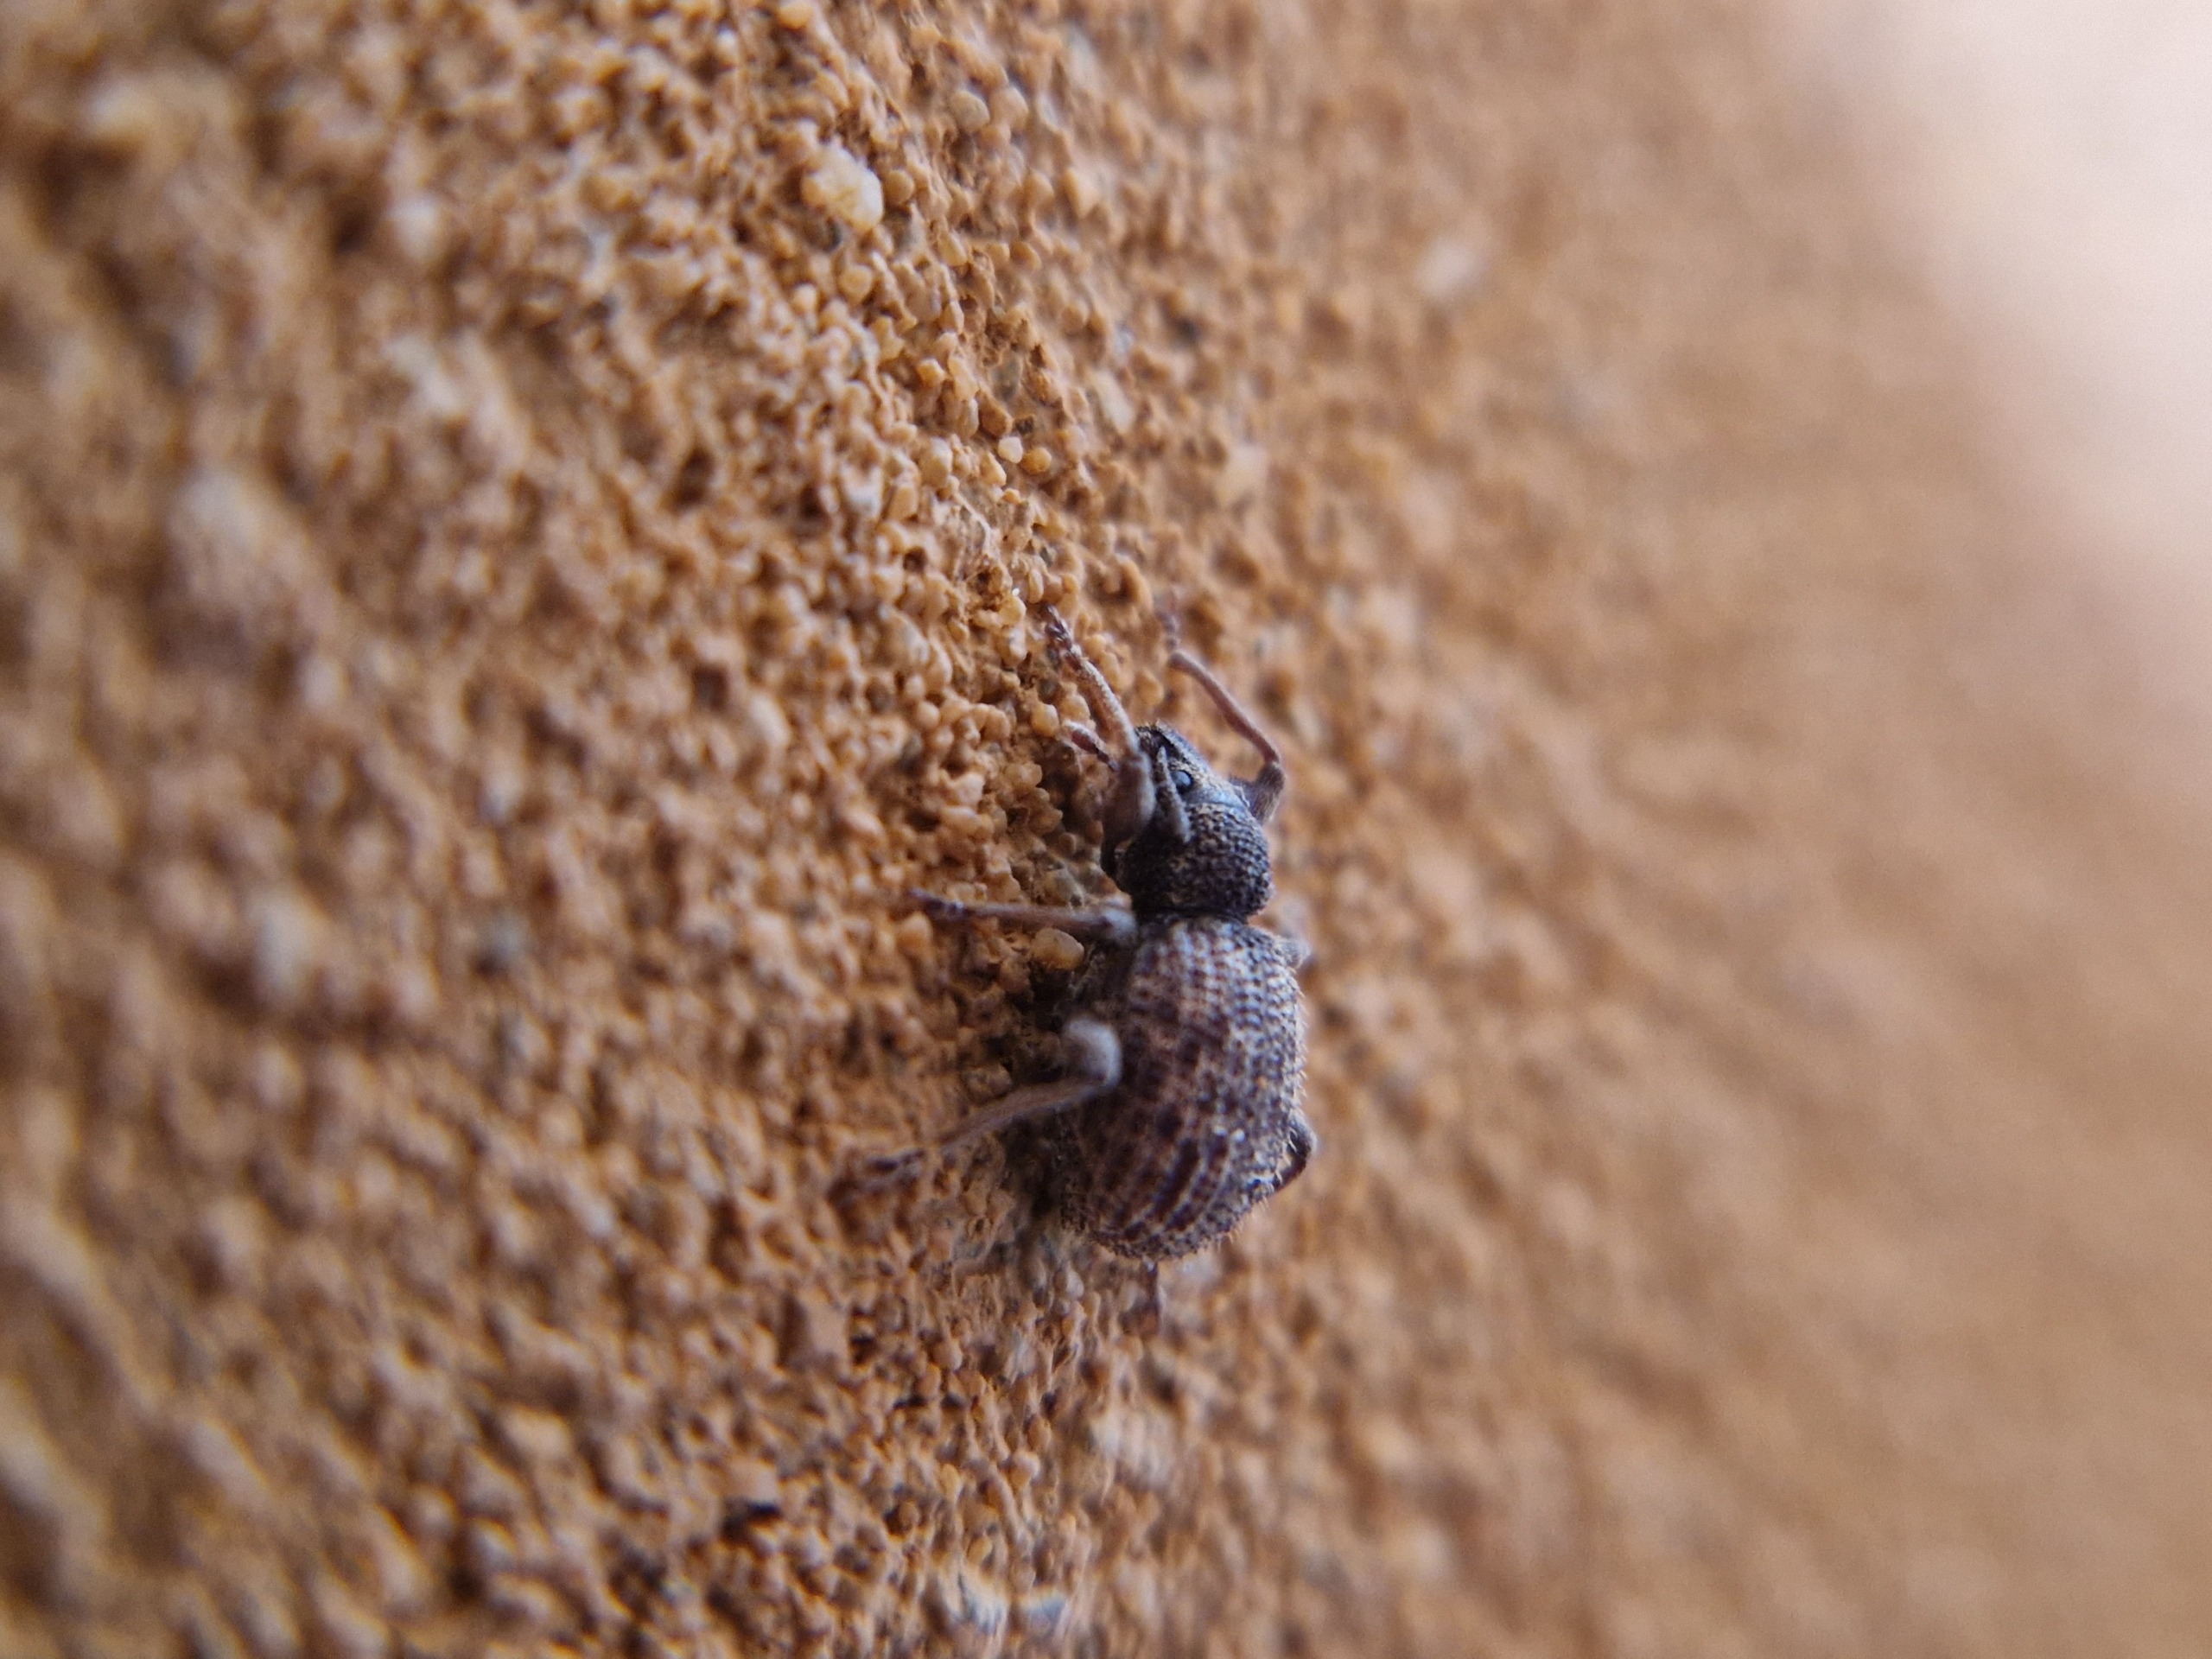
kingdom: Animalia
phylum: Arthropoda
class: Insecta
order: Coleoptera
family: Curculionidae
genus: Otiorhynchus
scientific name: Otiorhynchus crataegi
